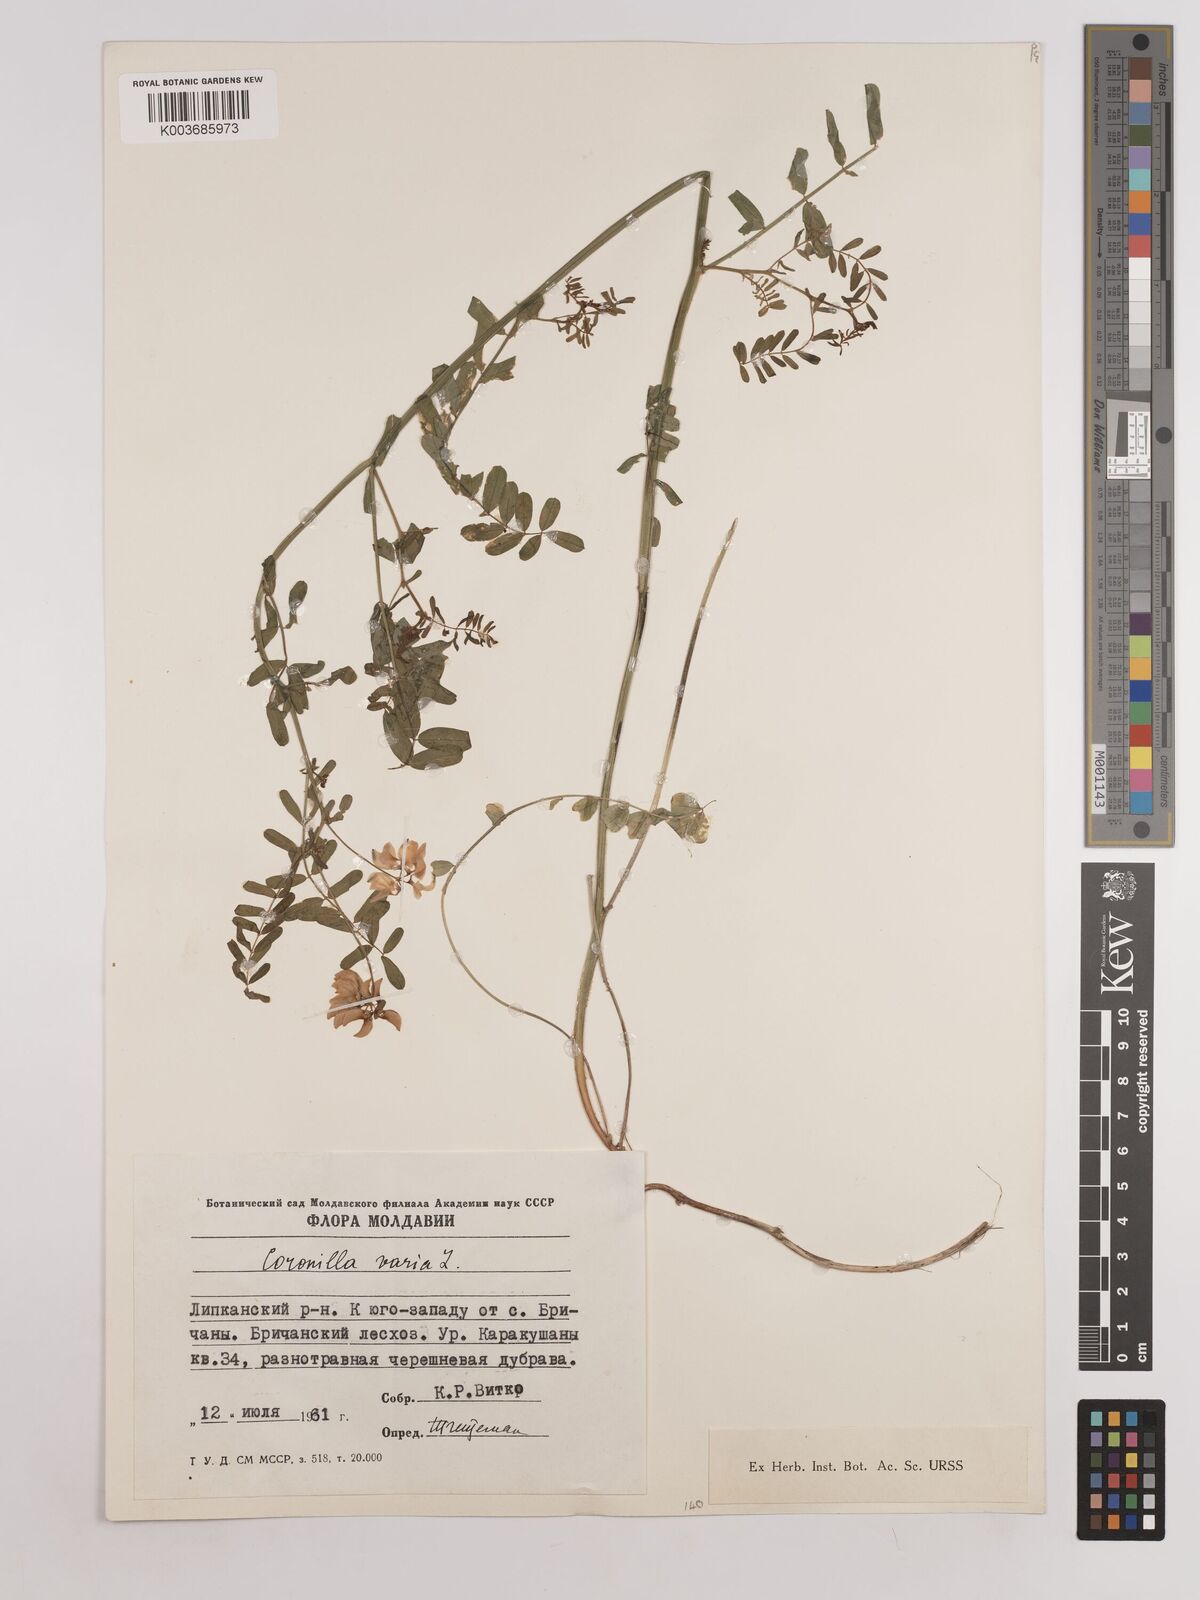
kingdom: Plantae
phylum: Tracheophyta
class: Magnoliopsida
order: Fabales
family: Fabaceae
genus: Coronilla
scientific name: Coronilla varia
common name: Crownvetch
